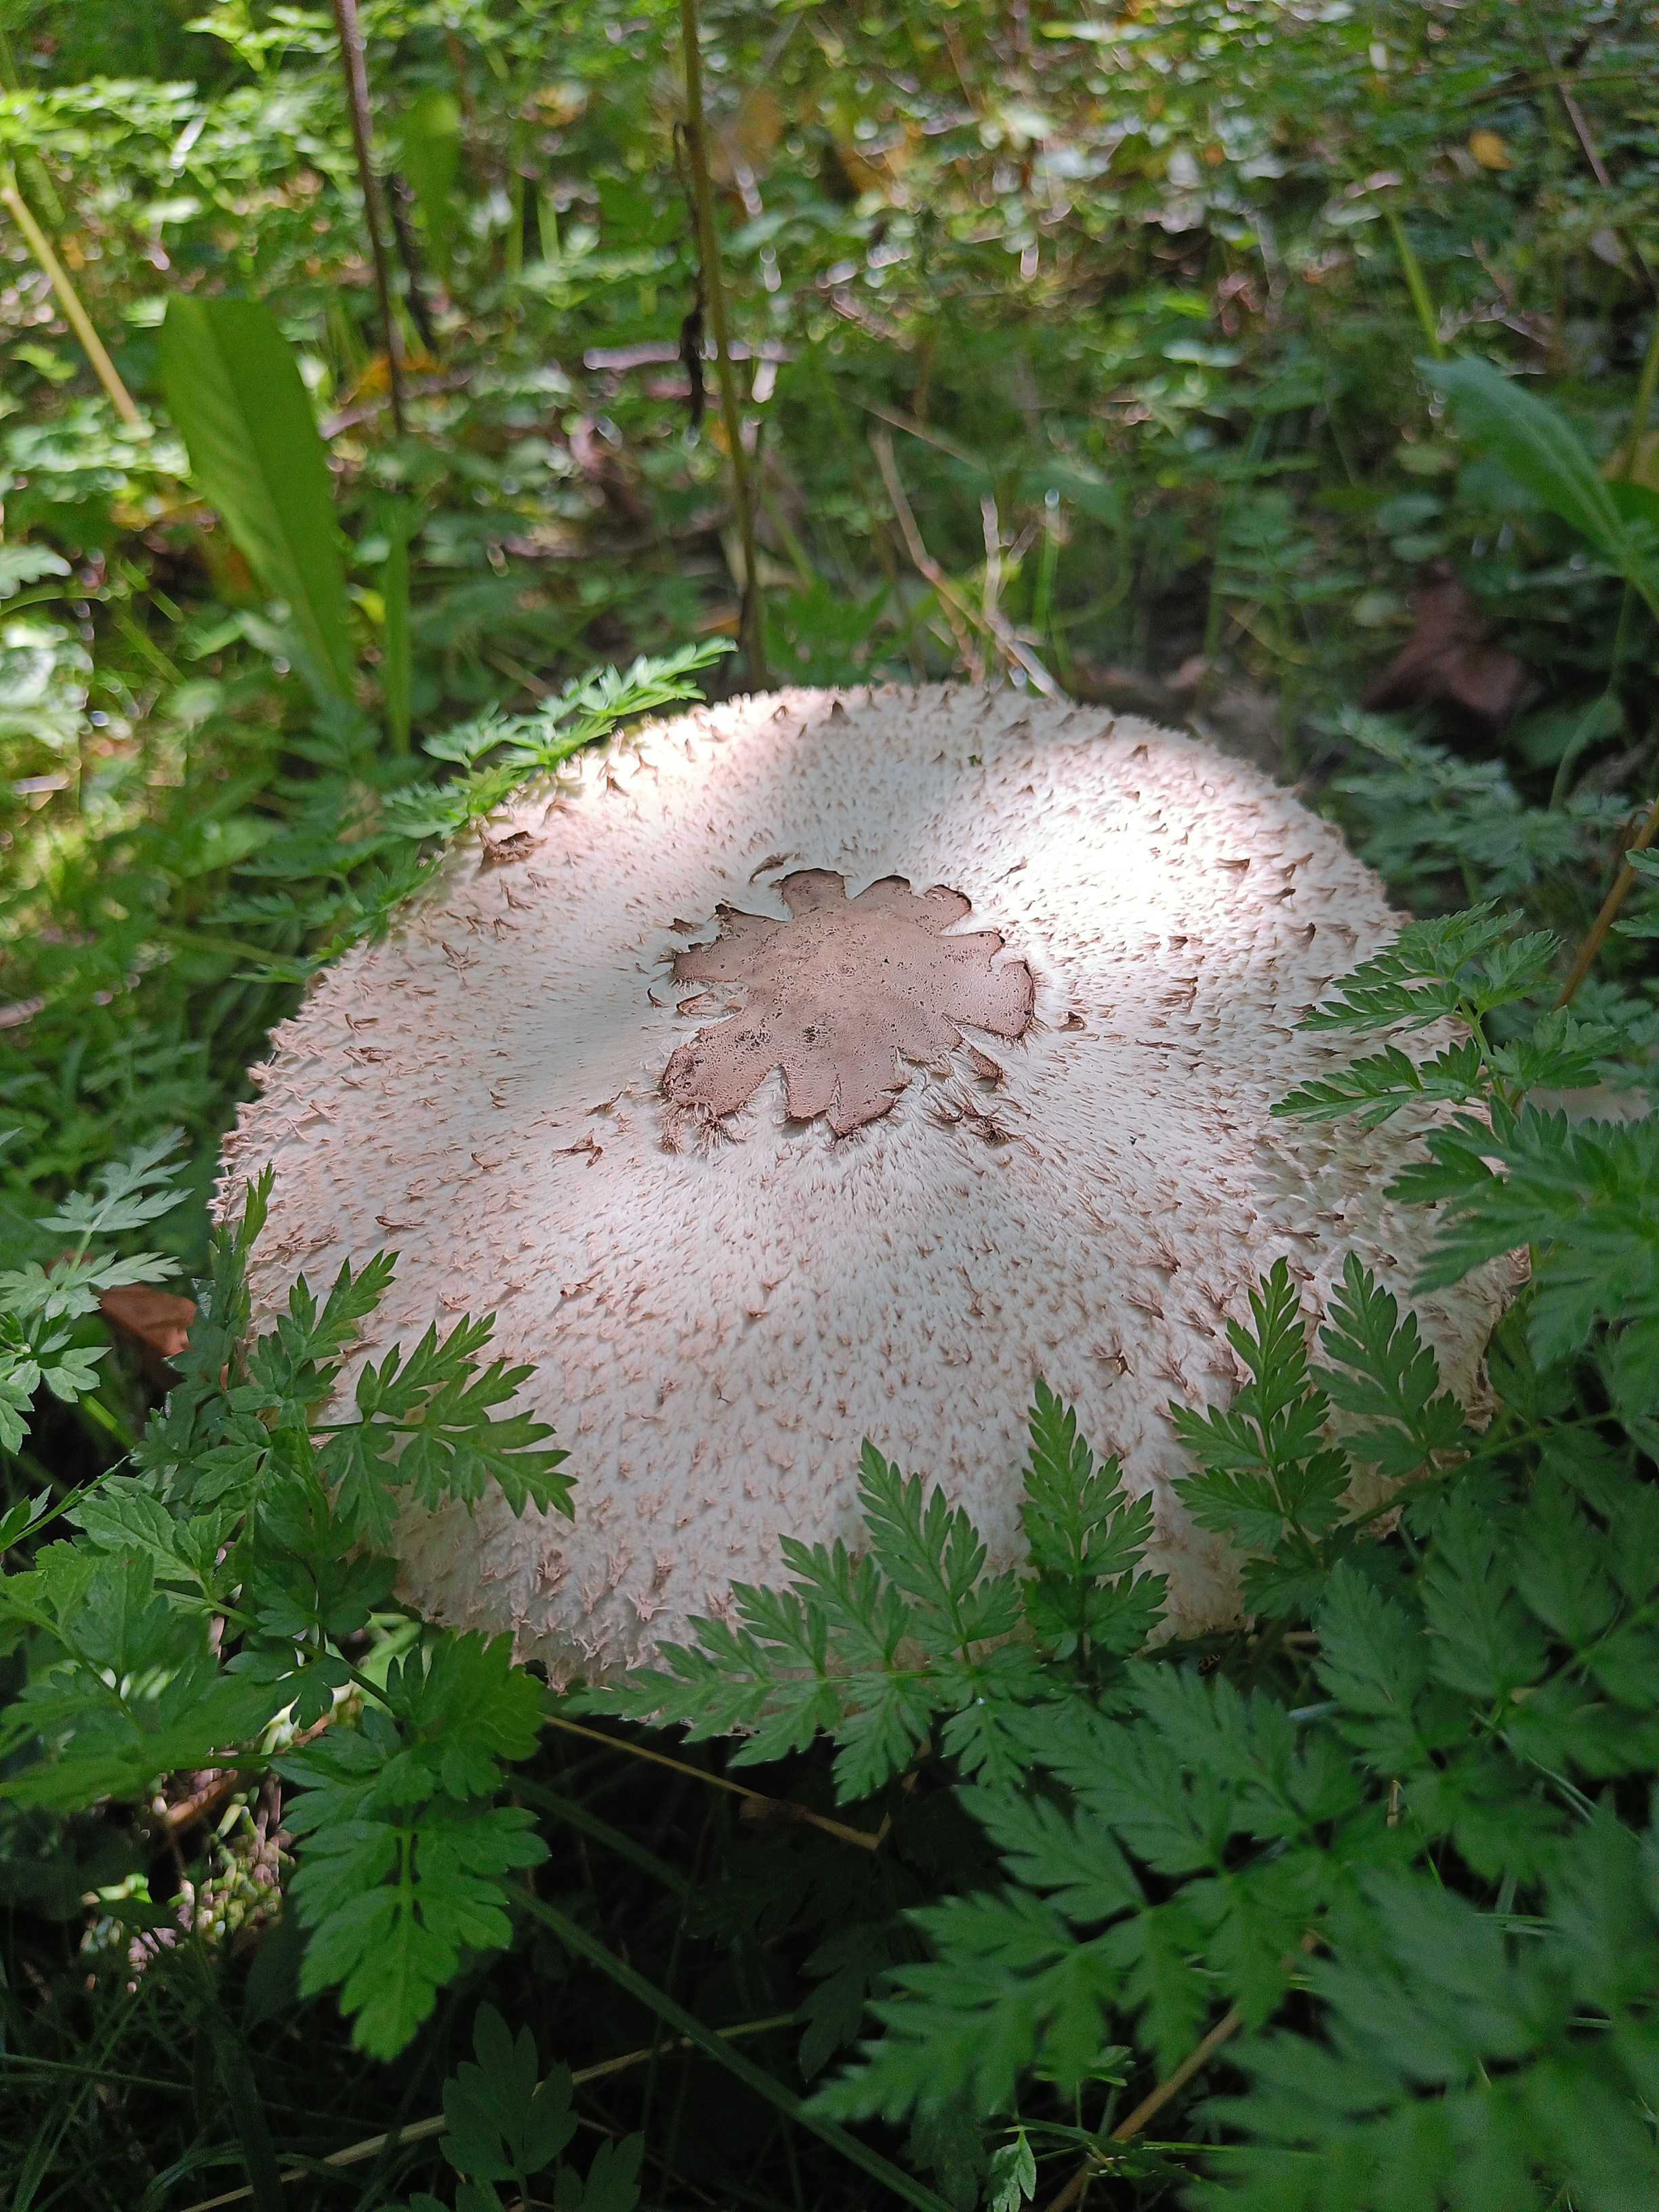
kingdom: Fungi
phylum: Basidiomycota
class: Agaricomycetes
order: Agaricales
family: Agaricaceae
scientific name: Agaricaceae
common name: champignonfamilien
